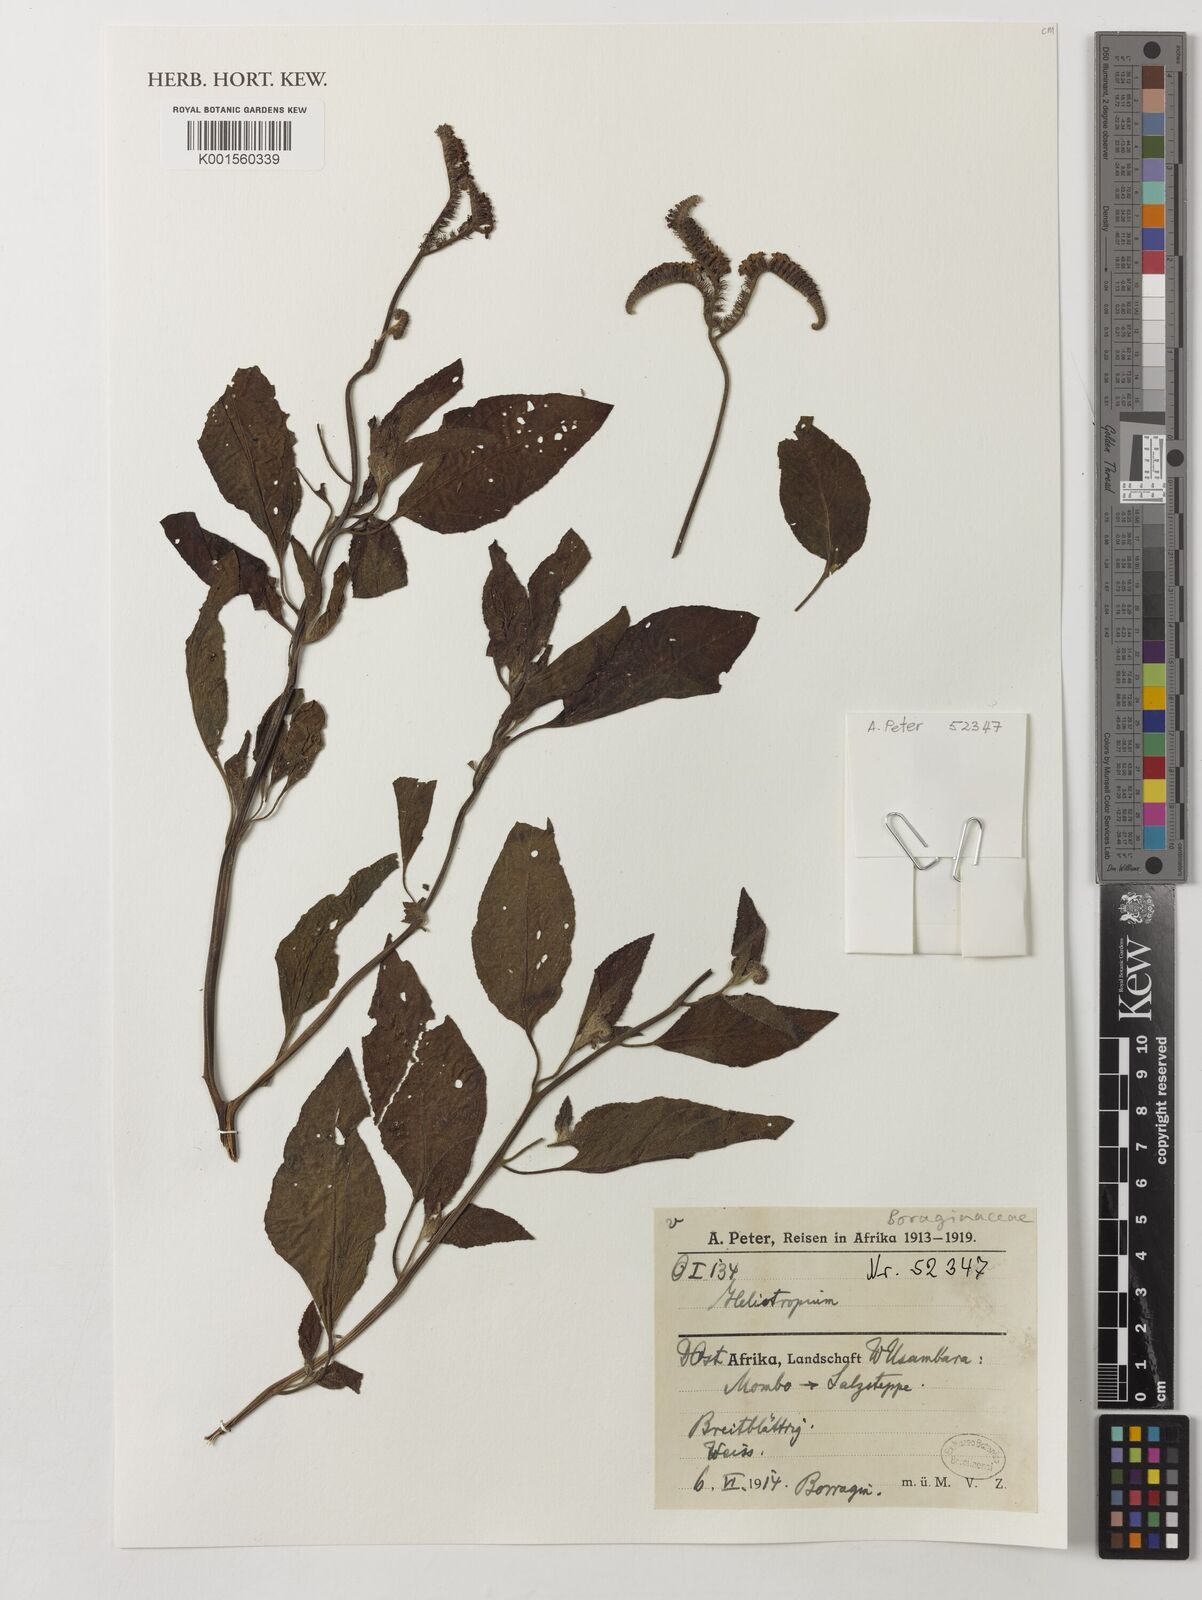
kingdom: Plantae
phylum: Tracheophyta
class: Magnoliopsida
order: Boraginales
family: Heliotropiaceae
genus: Heliotropium
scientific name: Heliotropium
